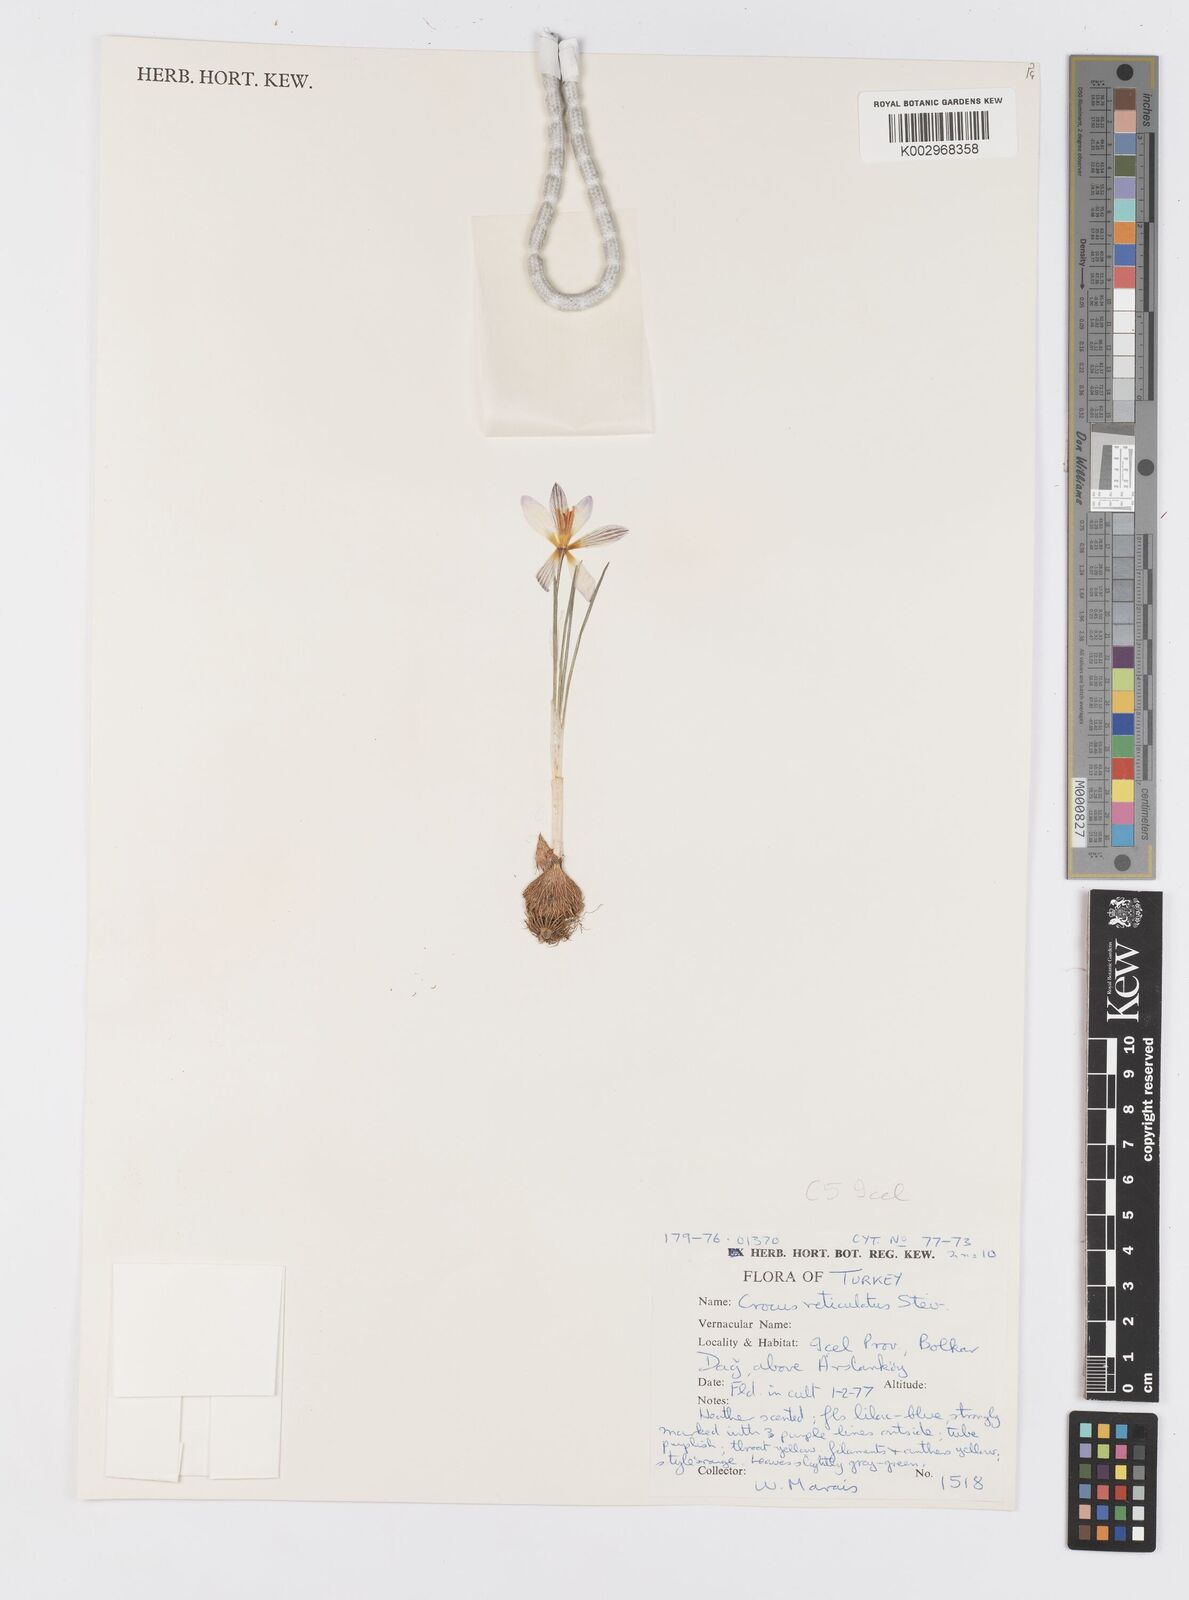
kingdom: Plantae
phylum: Tracheophyta
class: Liliopsida
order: Asparagales
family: Iridaceae
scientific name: Iridaceae
